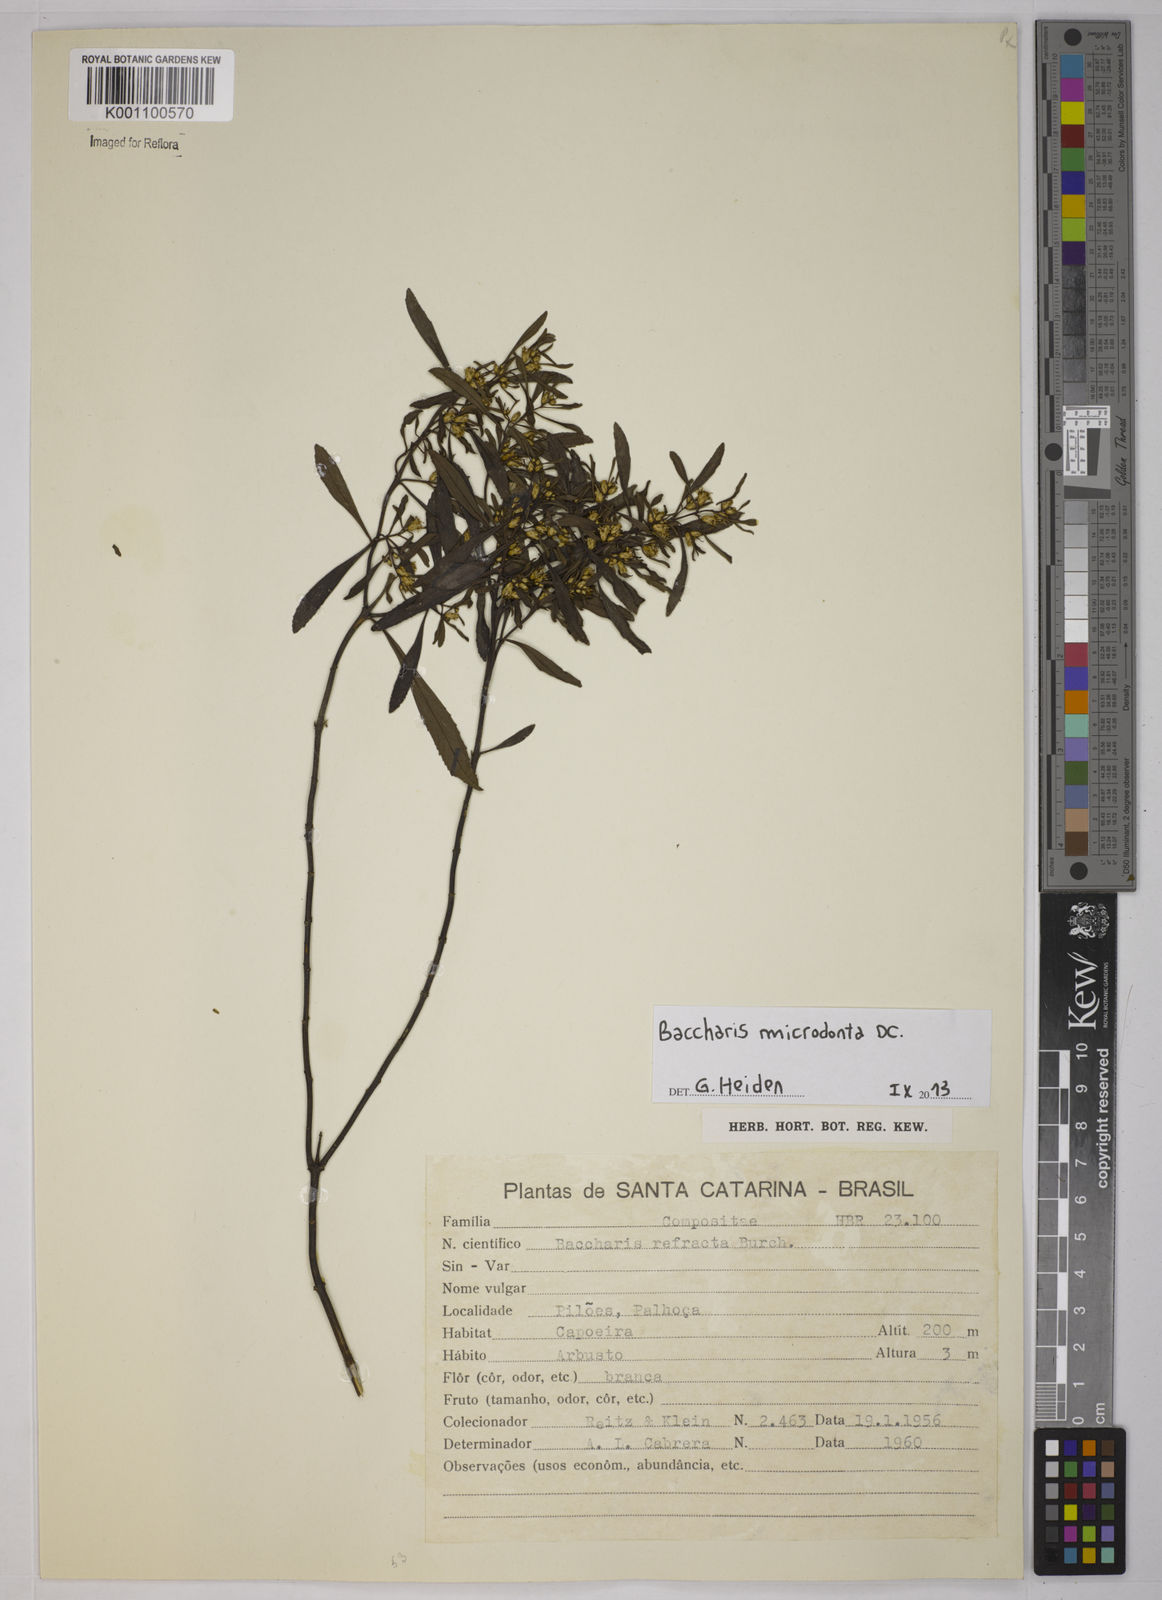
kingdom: Plantae
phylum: Tracheophyta
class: Magnoliopsida
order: Asterales
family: Asteraceae
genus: Baccharis
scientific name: Baccharis microdonta
